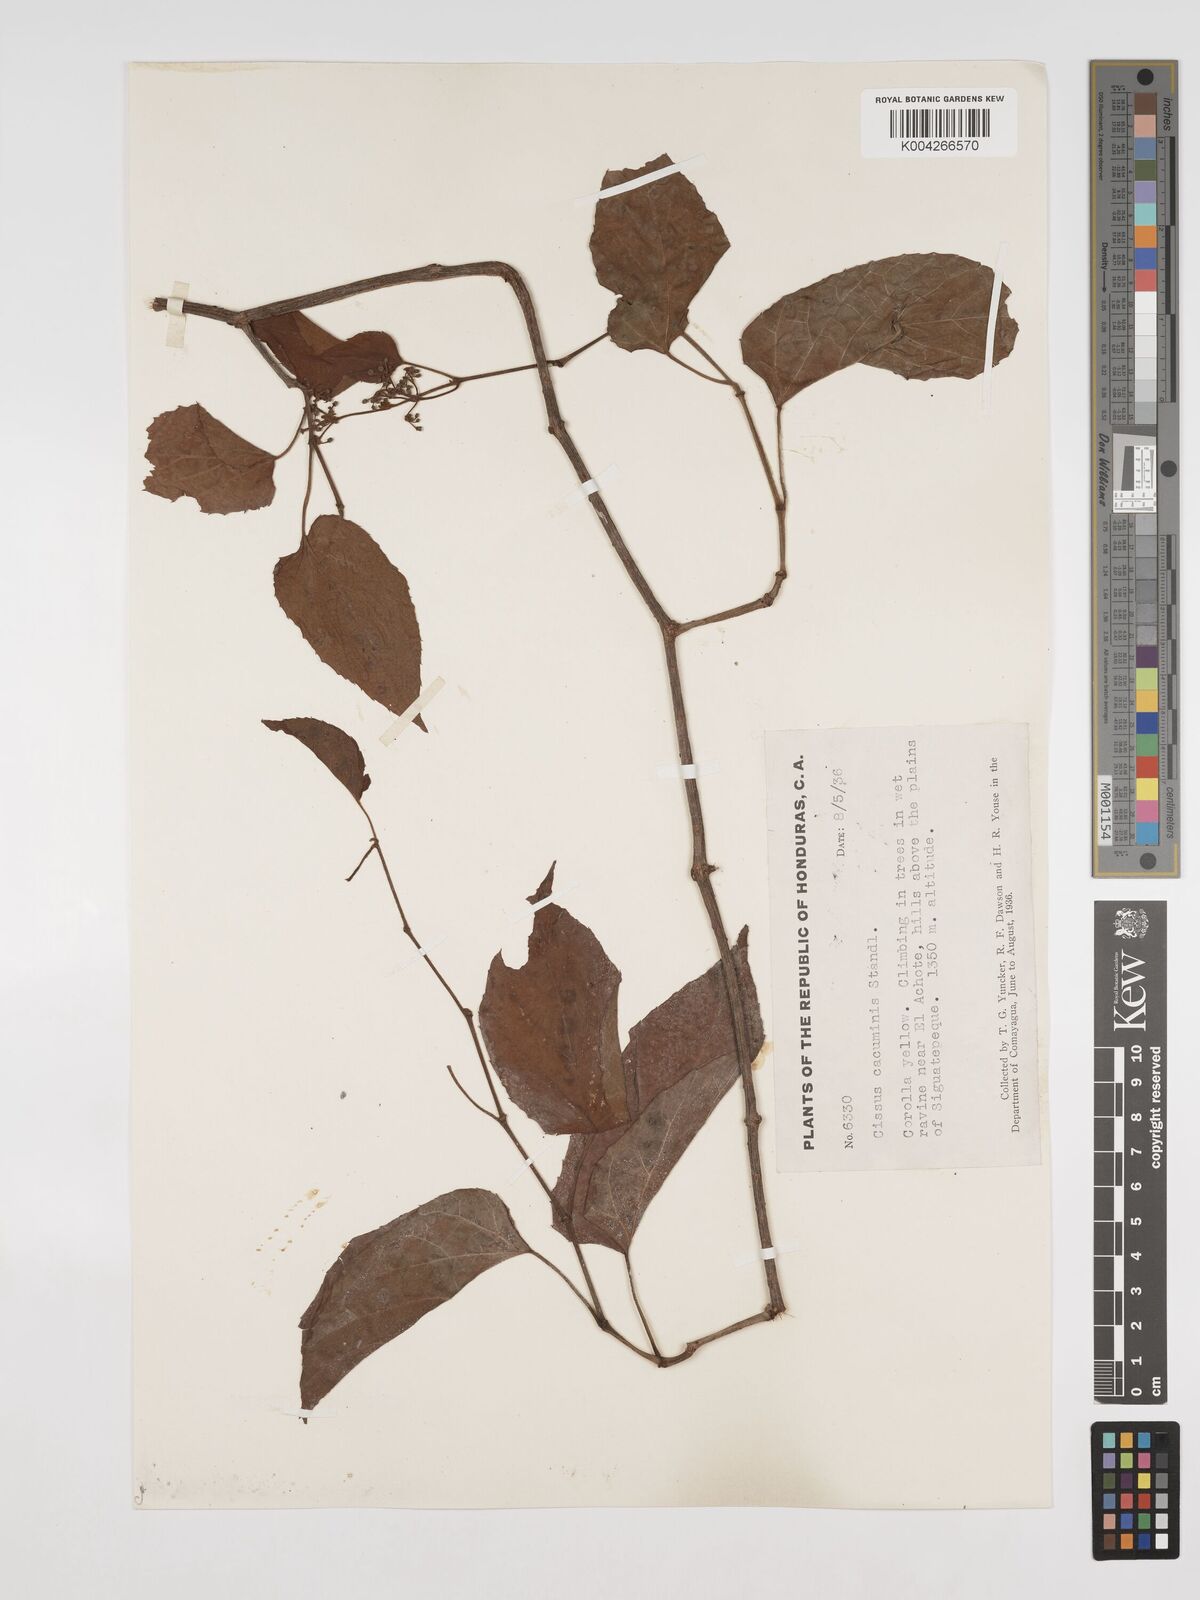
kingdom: Plantae
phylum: Tracheophyta
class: Magnoliopsida
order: Vitales
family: Vitaceae
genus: Cissus
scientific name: Cissus cacuminis
